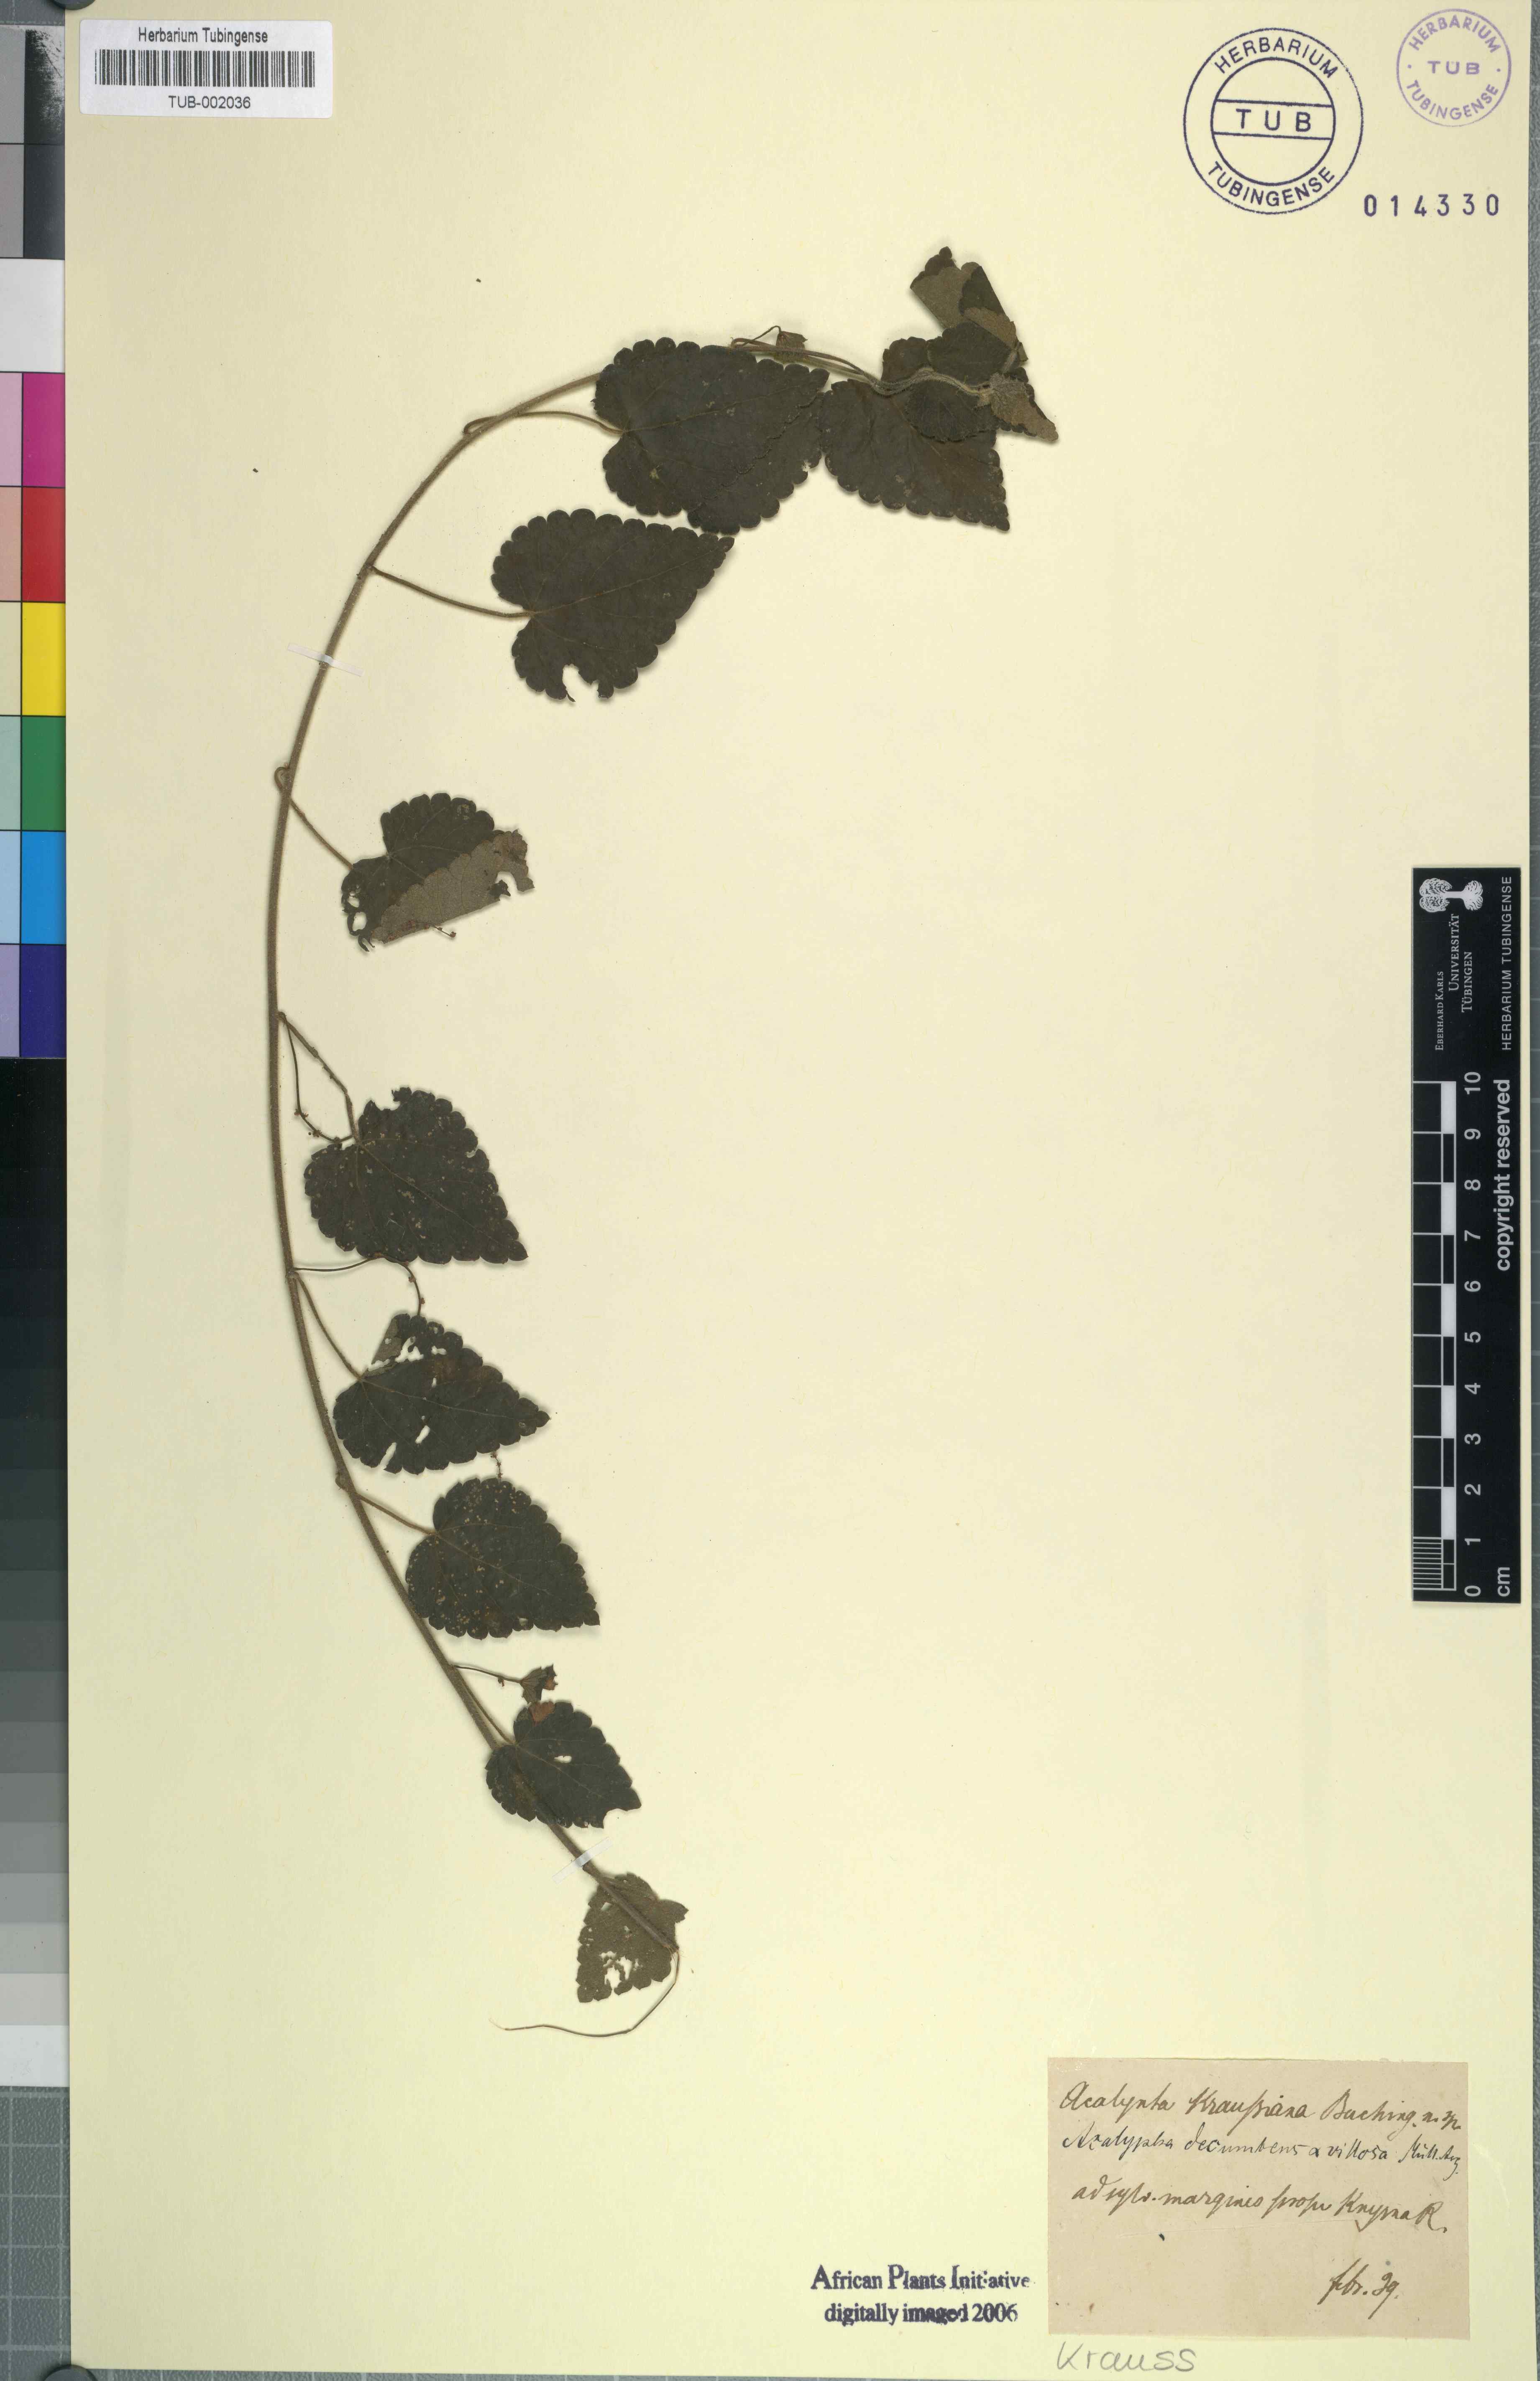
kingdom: Plantae
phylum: Tracheophyta
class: Magnoliopsida
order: Rosales
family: Urticaceae
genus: Didymodoxa
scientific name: Didymodoxa capensis
